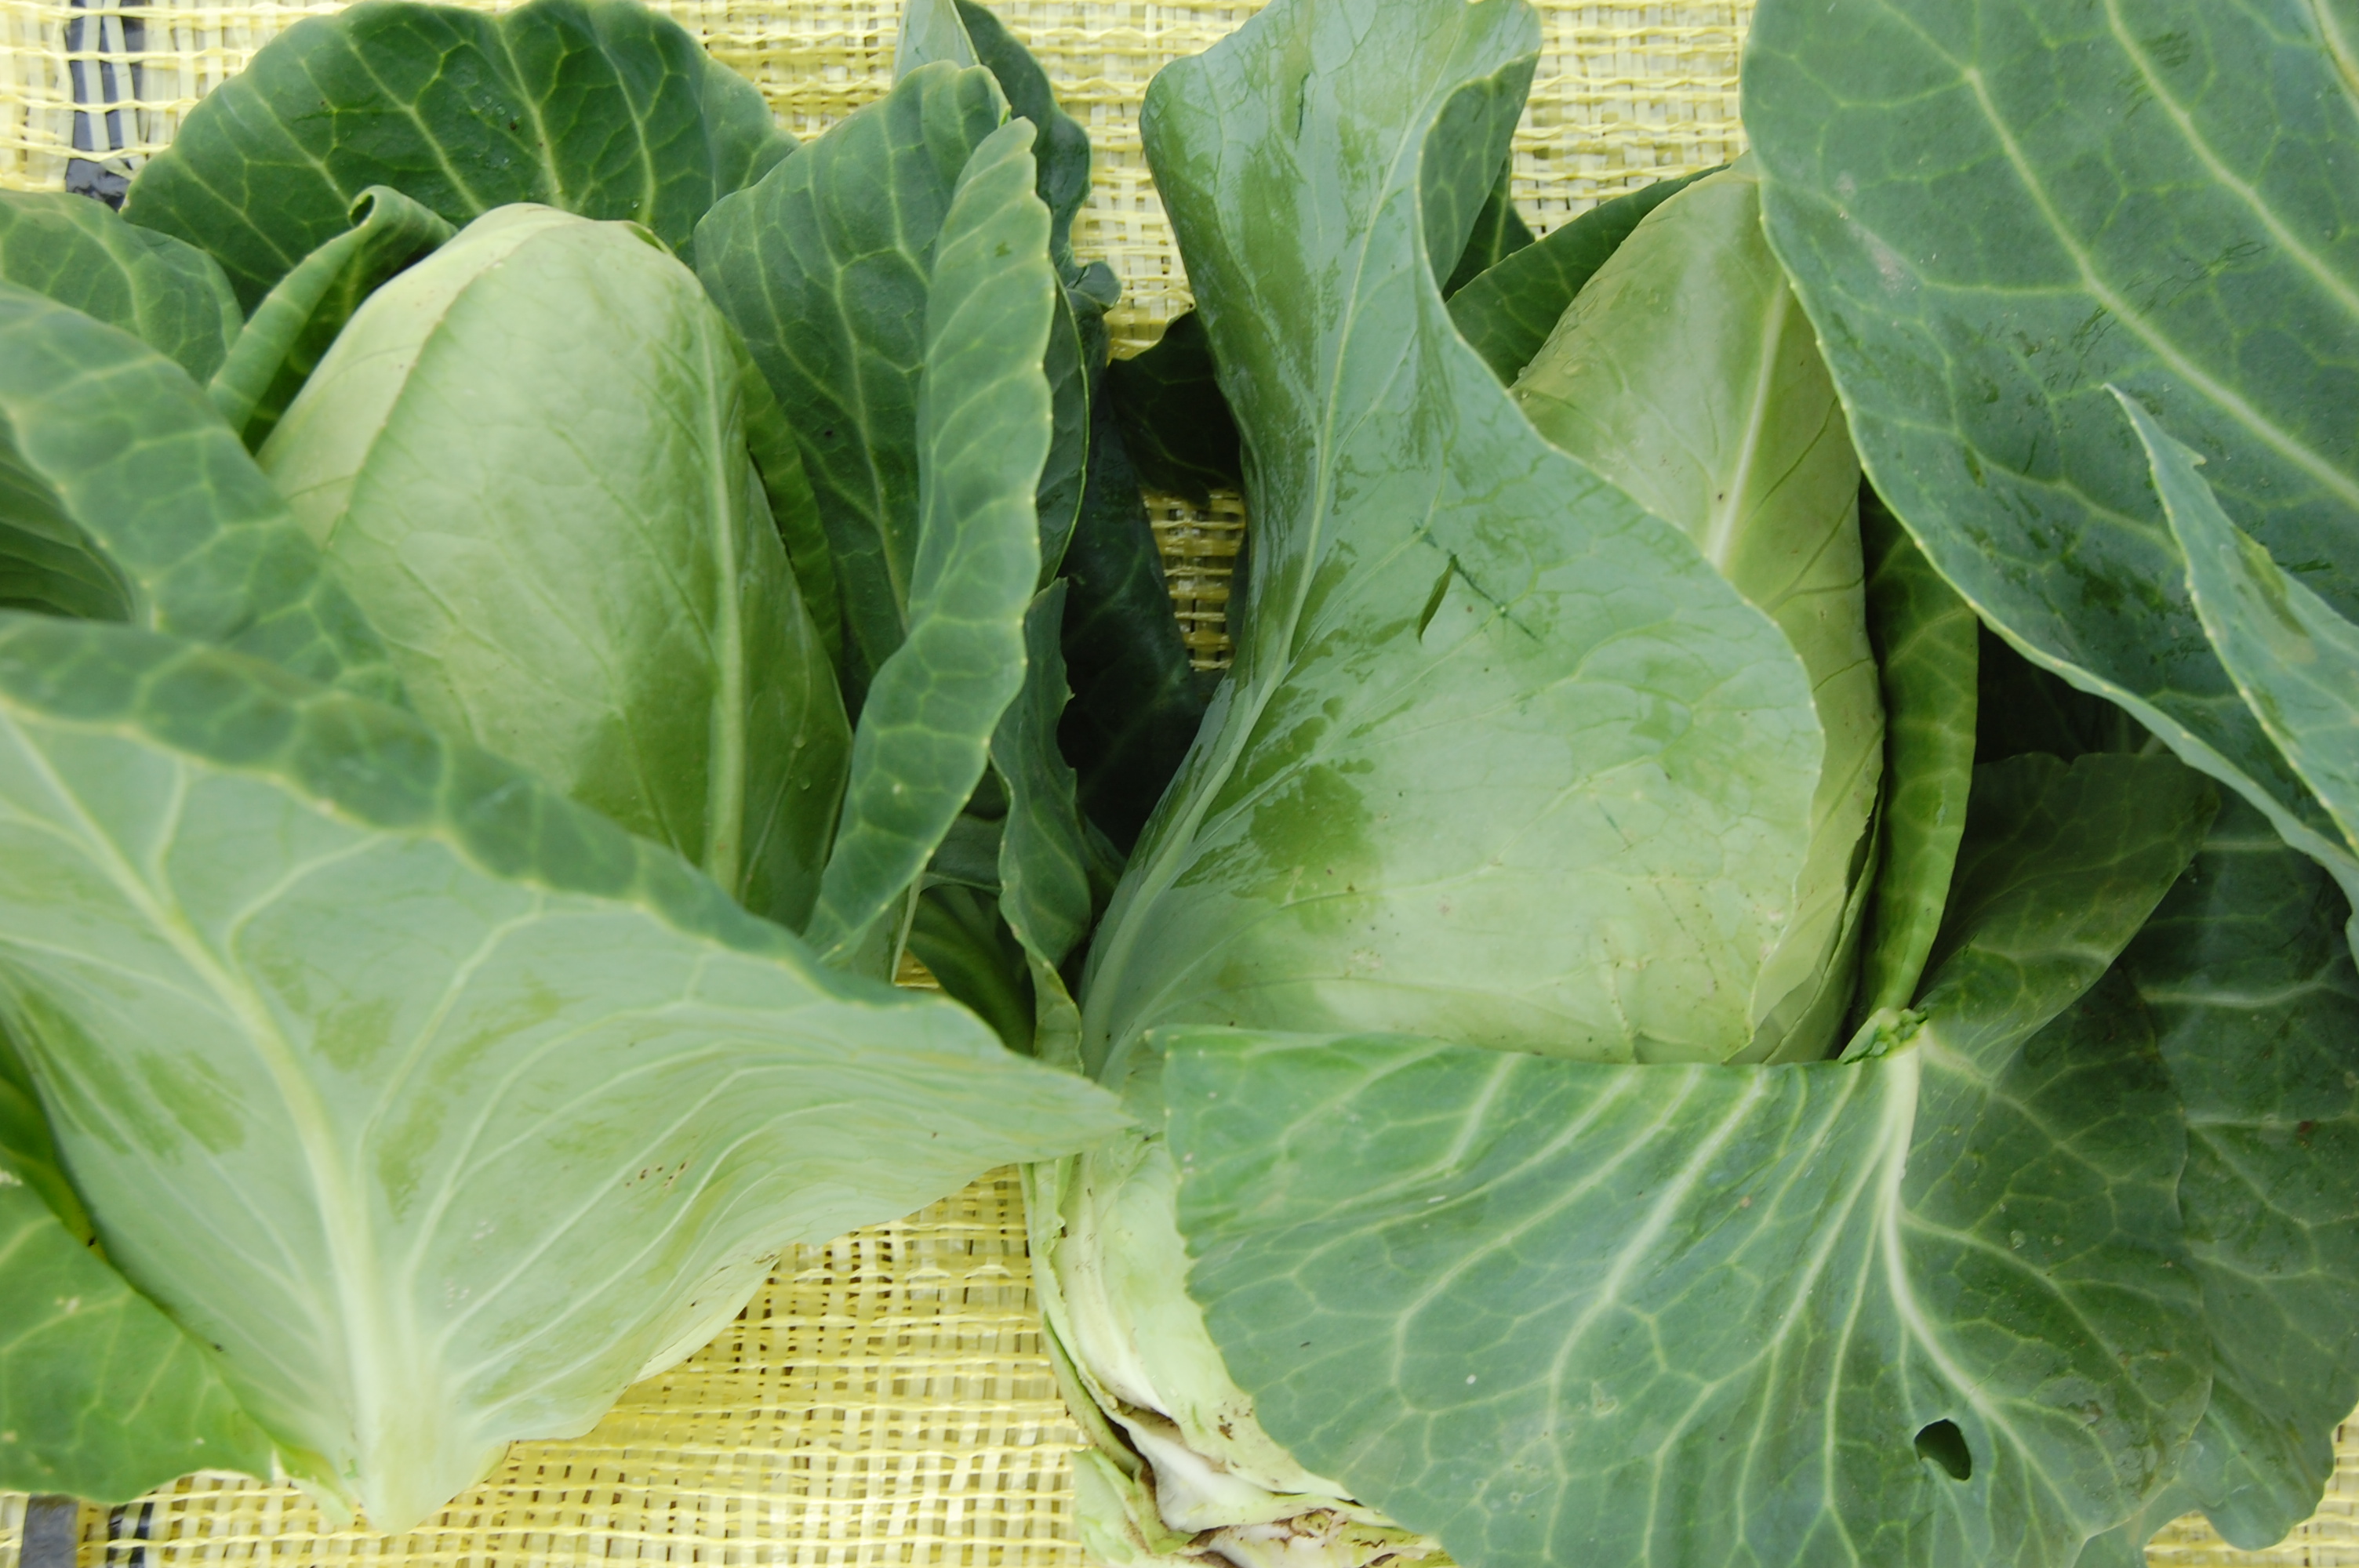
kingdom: Plantae
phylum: Tracheophyta
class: Magnoliopsida
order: Brassicales
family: Brassicaceae
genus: Brassica
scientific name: Brassica oleracea
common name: Cabbage
